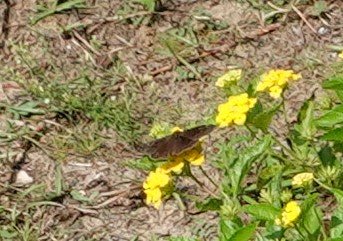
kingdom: Animalia
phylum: Arthropoda
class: Insecta
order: Lepidoptera
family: Hesperiidae
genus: Erynnis
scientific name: Erynnis zarucco
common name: Zarucco Duskywing
